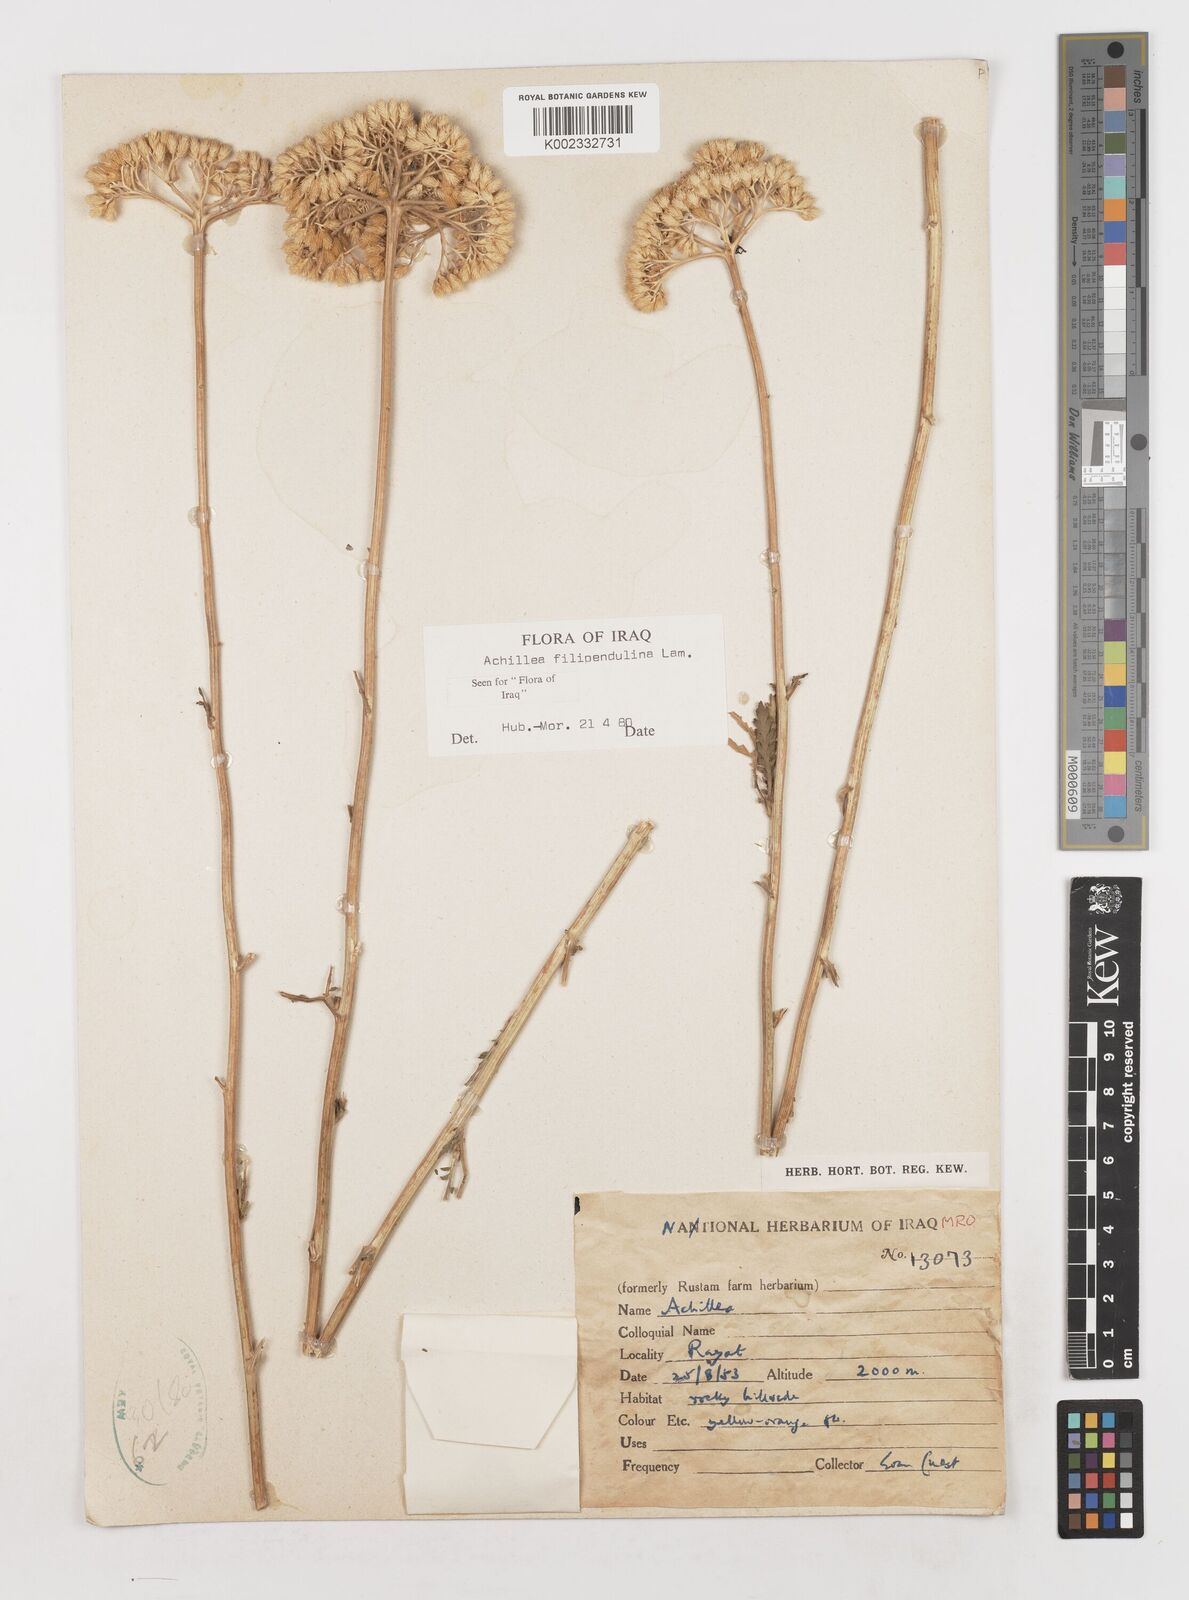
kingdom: Plantae
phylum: Tracheophyta
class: Magnoliopsida
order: Asterales
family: Asteraceae
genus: Achillea
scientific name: Achillea filipendulina
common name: Fernleaf yarrow
